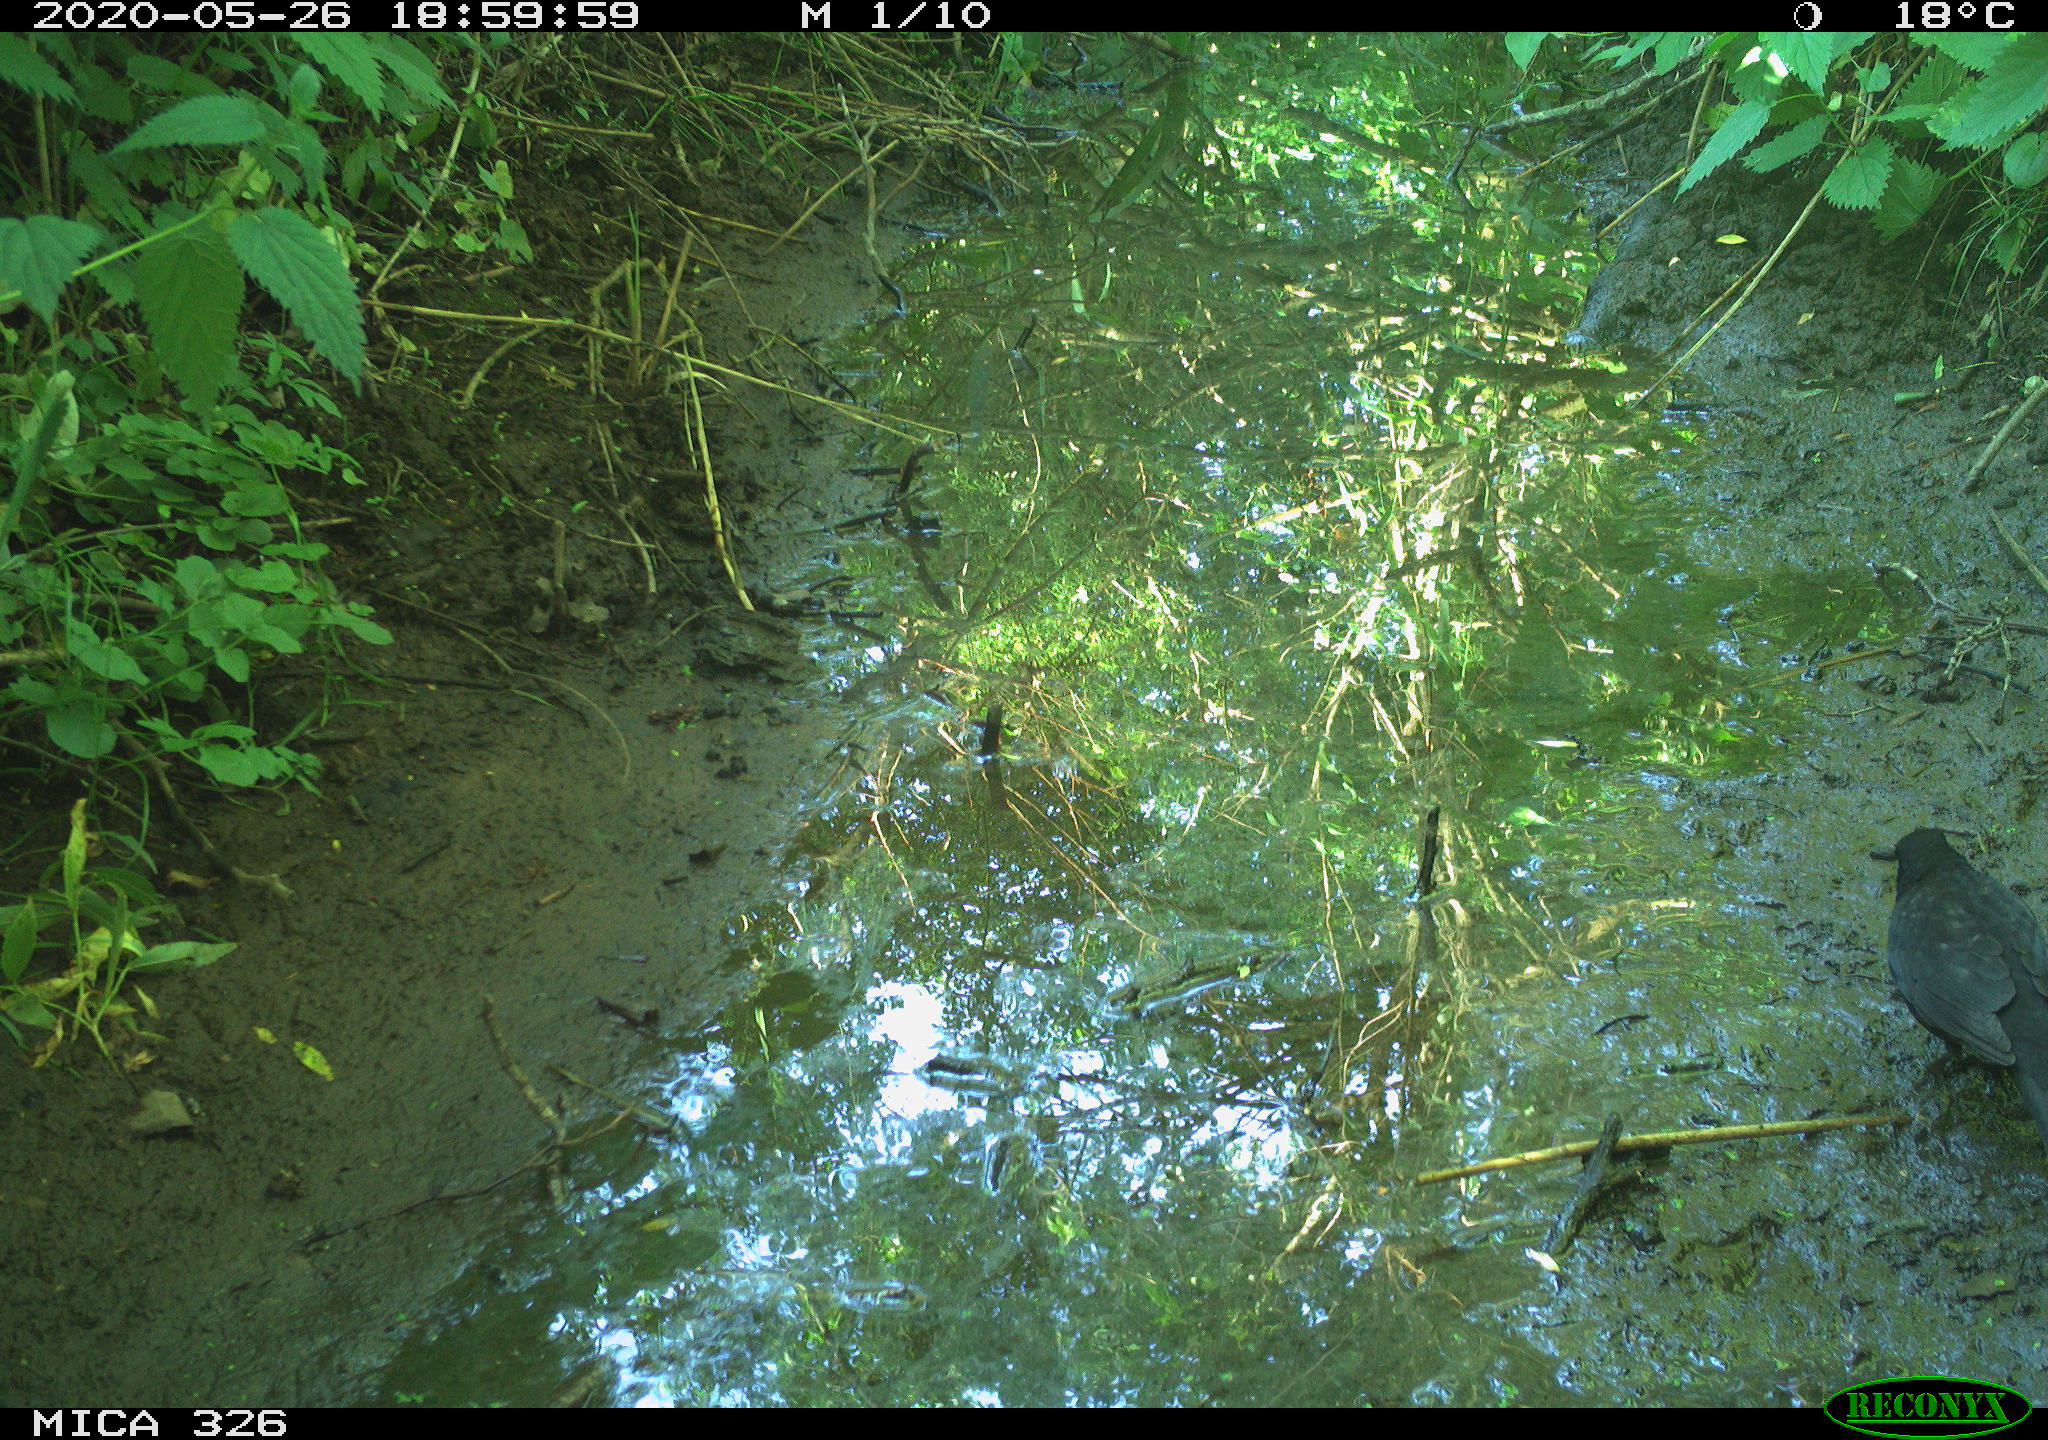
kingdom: Animalia
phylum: Chordata
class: Aves
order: Passeriformes
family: Turdidae
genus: Turdus
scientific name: Turdus merula
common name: Common blackbird
